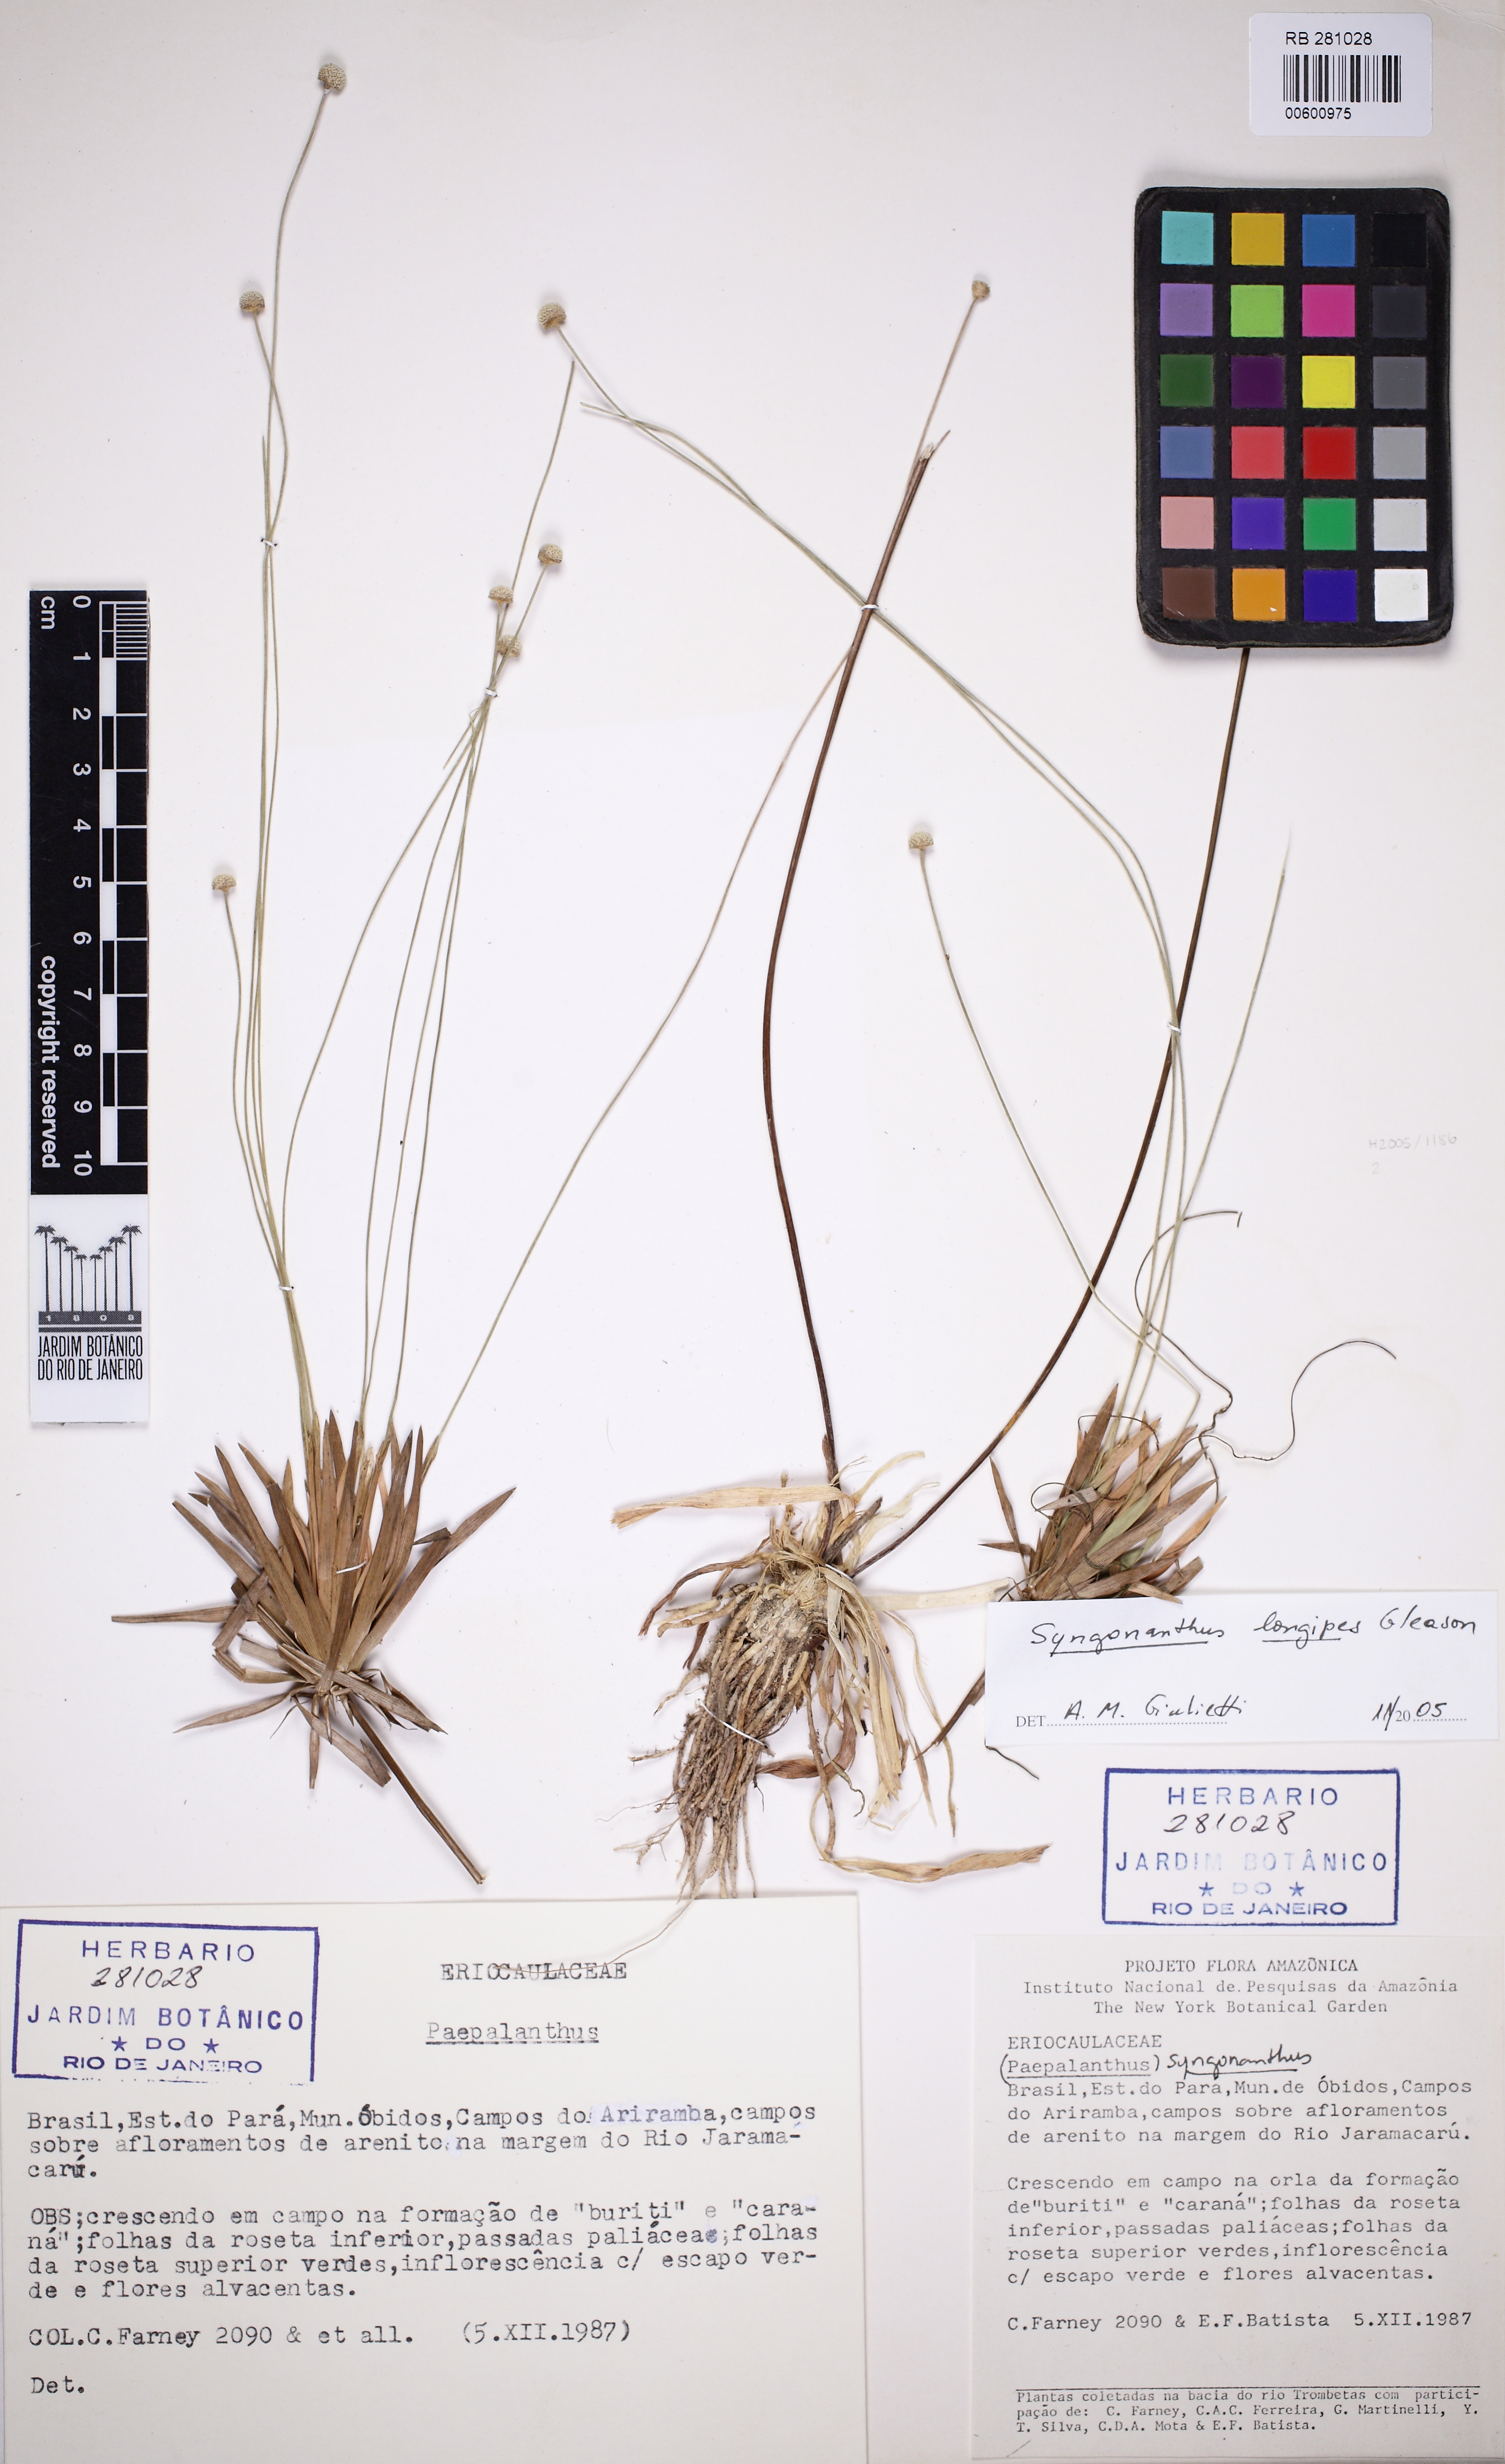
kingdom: Plantae
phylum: Tracheophyta
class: Liliopsida
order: Poales
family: Eriocaulaceae
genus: Syngonanthus
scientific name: Syngonanthus longipes
